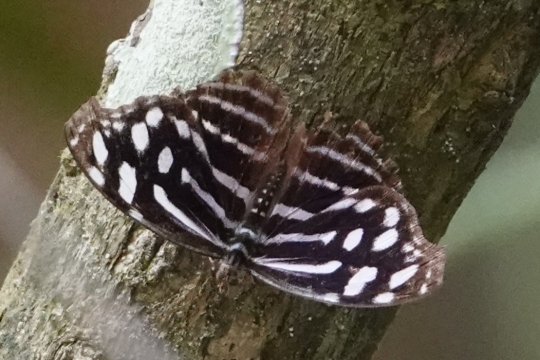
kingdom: Animalia
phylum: Arthropoda
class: Insecta
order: Lepidoptera
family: Nymphalidae
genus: Myscelia
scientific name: Myscelia cyaniris
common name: Whitened Bluewing
